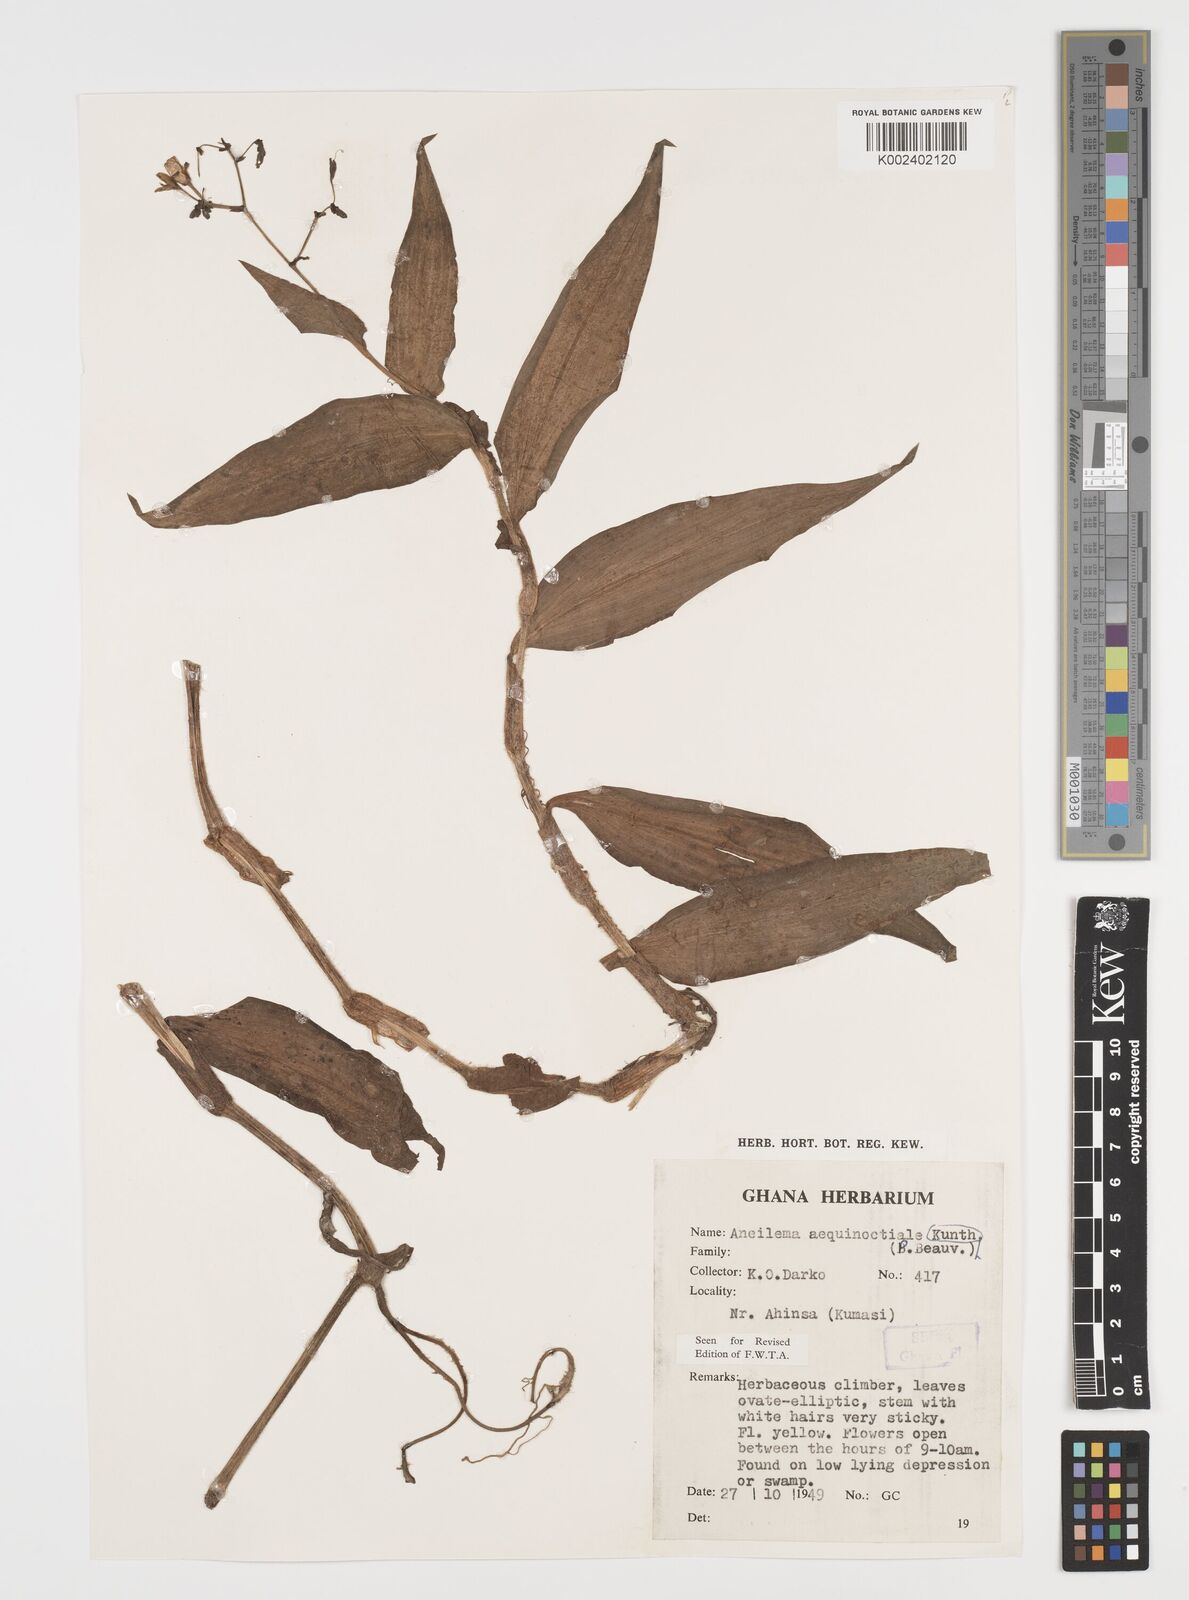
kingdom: Plantae
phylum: Tracheophyta
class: Liliopsida
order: Commelinales
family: Commelinaceae
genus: Aneilema
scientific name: Aneilema aequinoctiale
